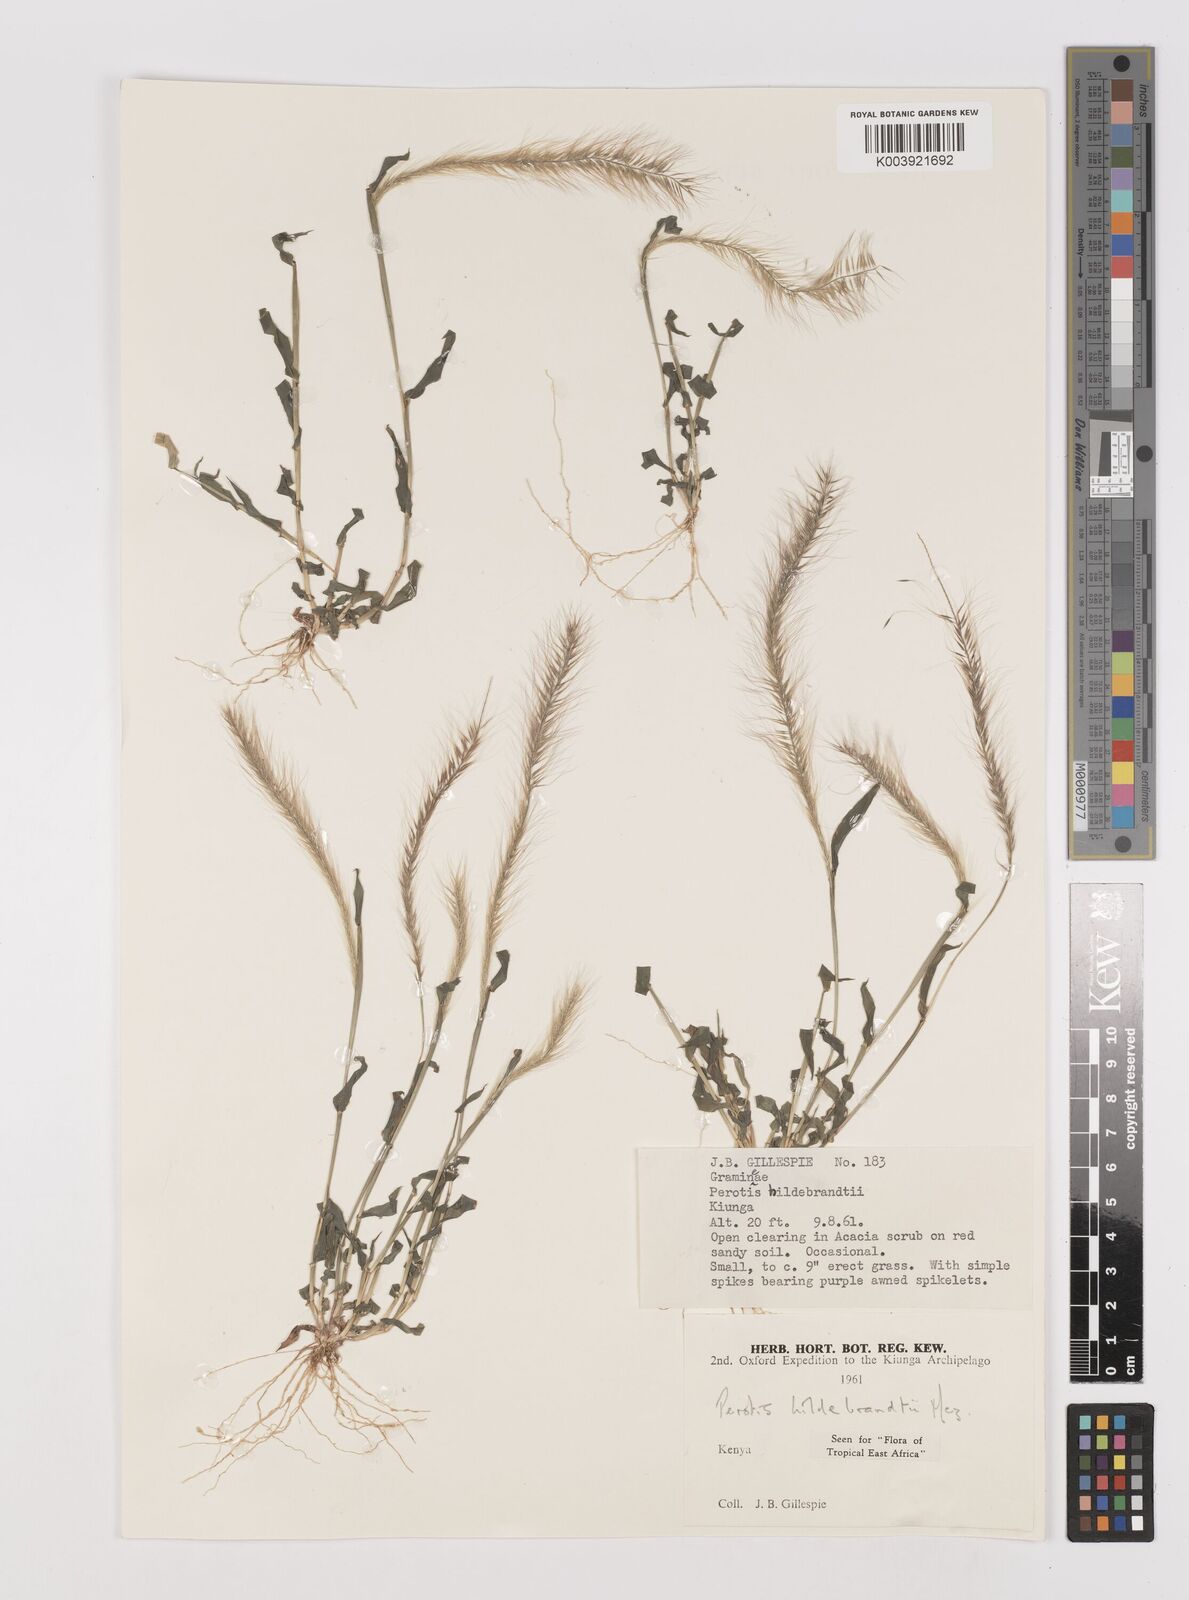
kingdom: Plantae
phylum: Tracheophyta
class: Liliopsida
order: Poales
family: Poaceae
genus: Perotis
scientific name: Perotis hildebrandtii
